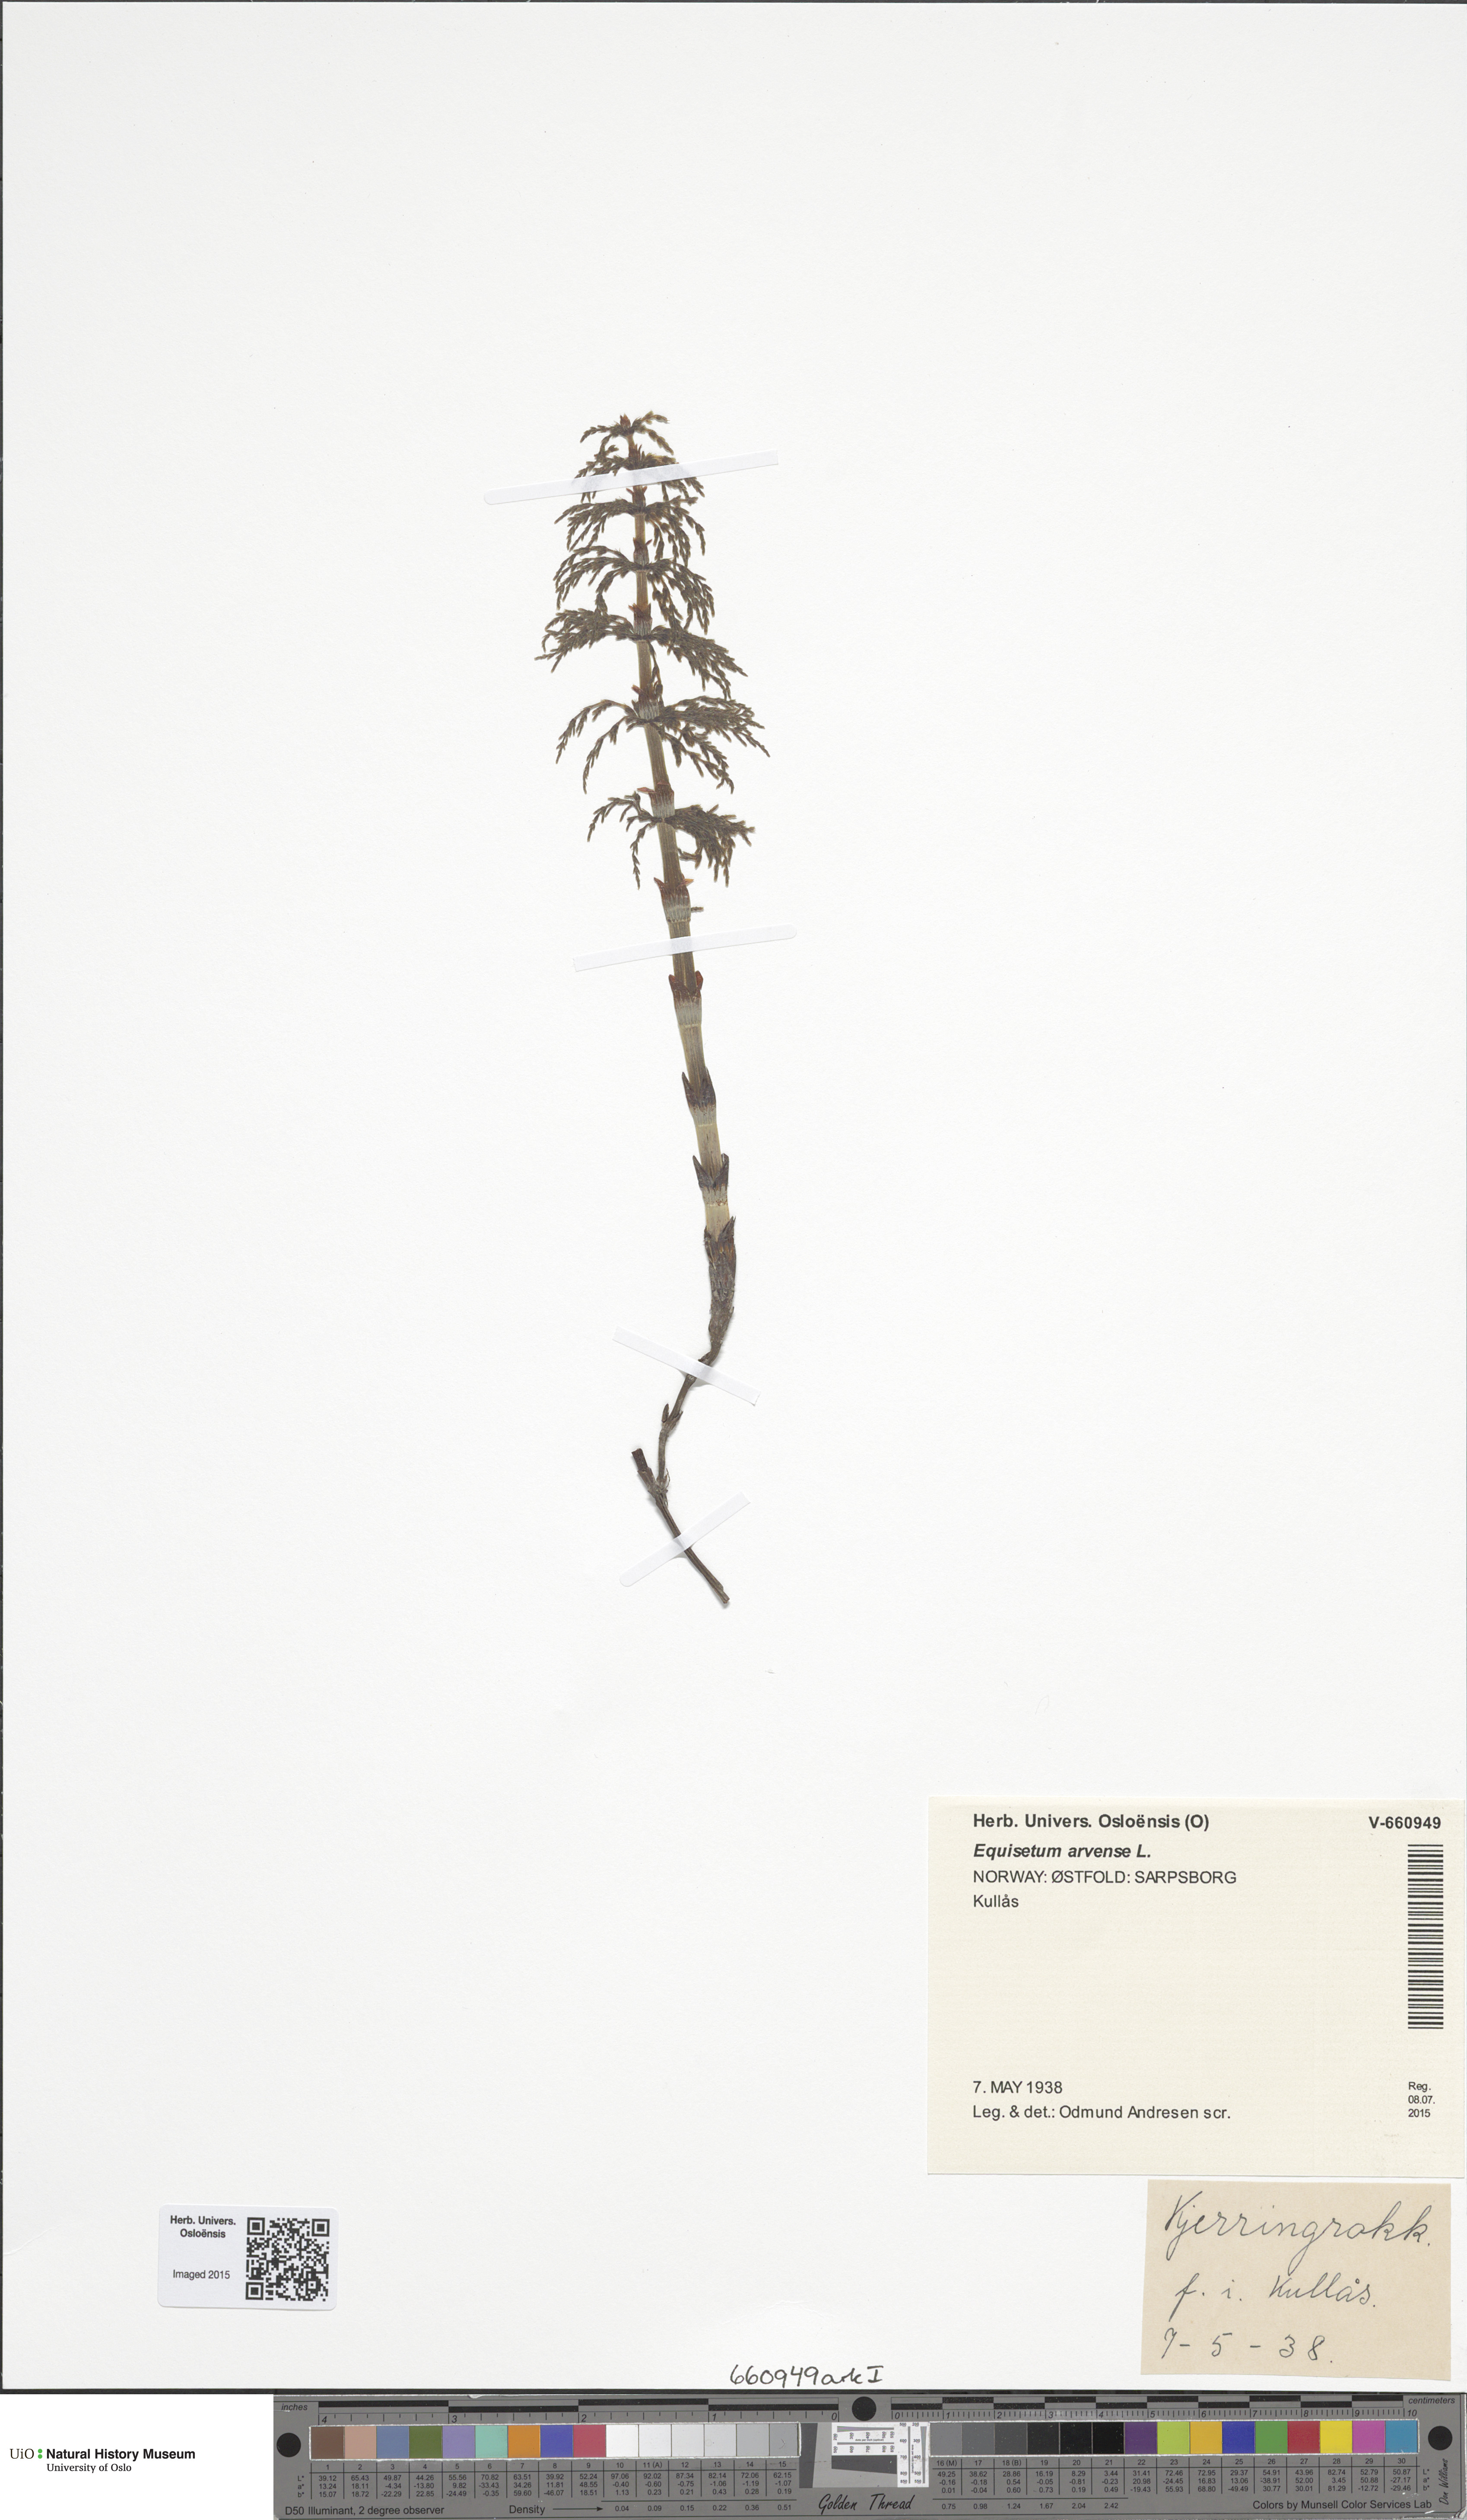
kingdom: Plantae
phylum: Tracheophyta
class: Polypodiopsida
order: Equisetales
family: Equisetaceae
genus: Equisetum
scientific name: Equisetum sylvaticum
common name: Wood horsetail
